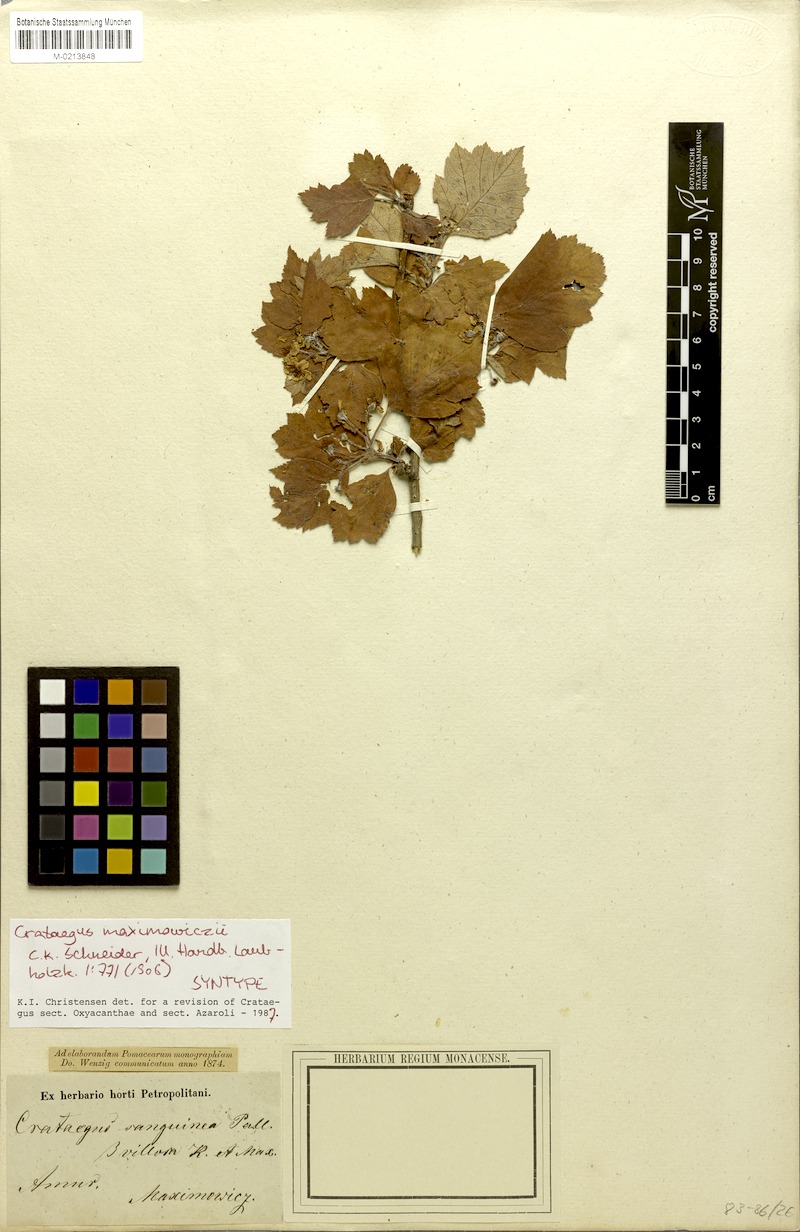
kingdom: Plantae
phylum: Tracheophyta
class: Magnoliopsida
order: Rosales
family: Rosaceae
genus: Crataegus
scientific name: Crataegus maximowiczii
